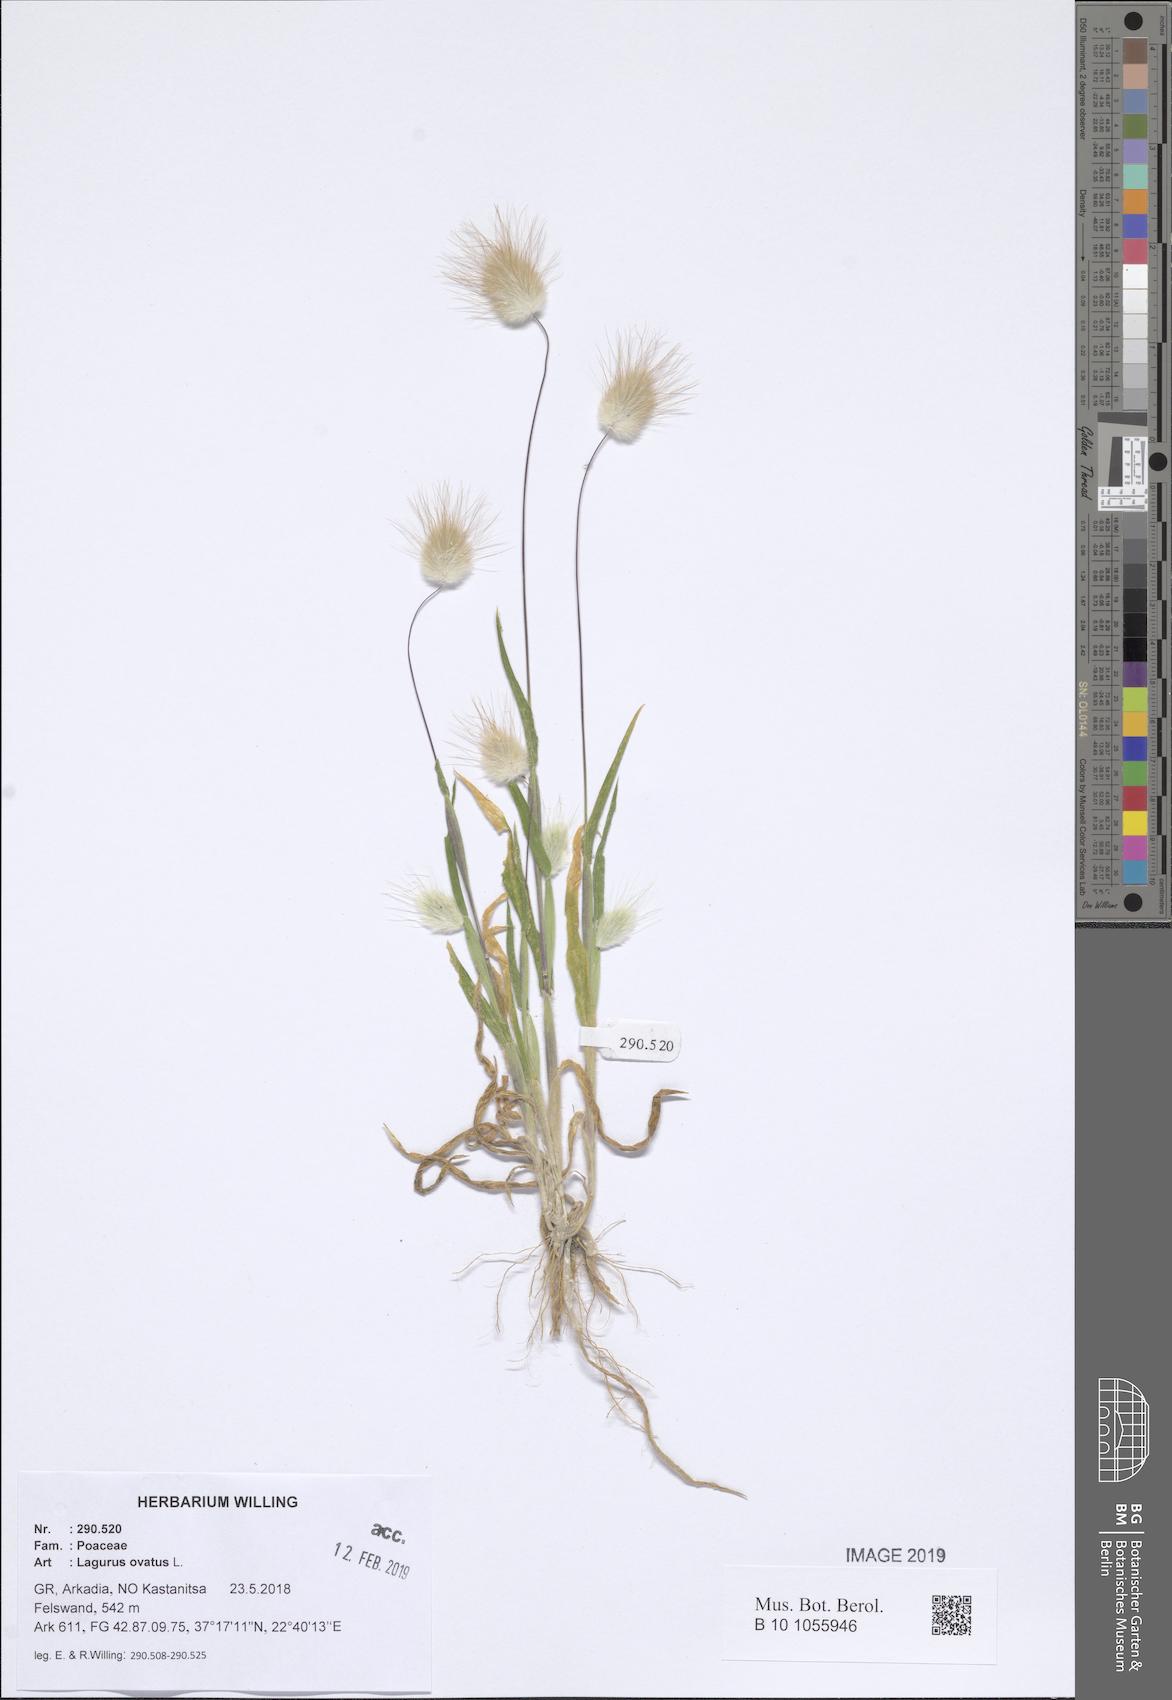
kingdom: Plantae
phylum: Tracheophyta
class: Liliopsida
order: Poales
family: Poaceae
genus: Lagurus
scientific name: Lagurus ovatus
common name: Hare's-tail
